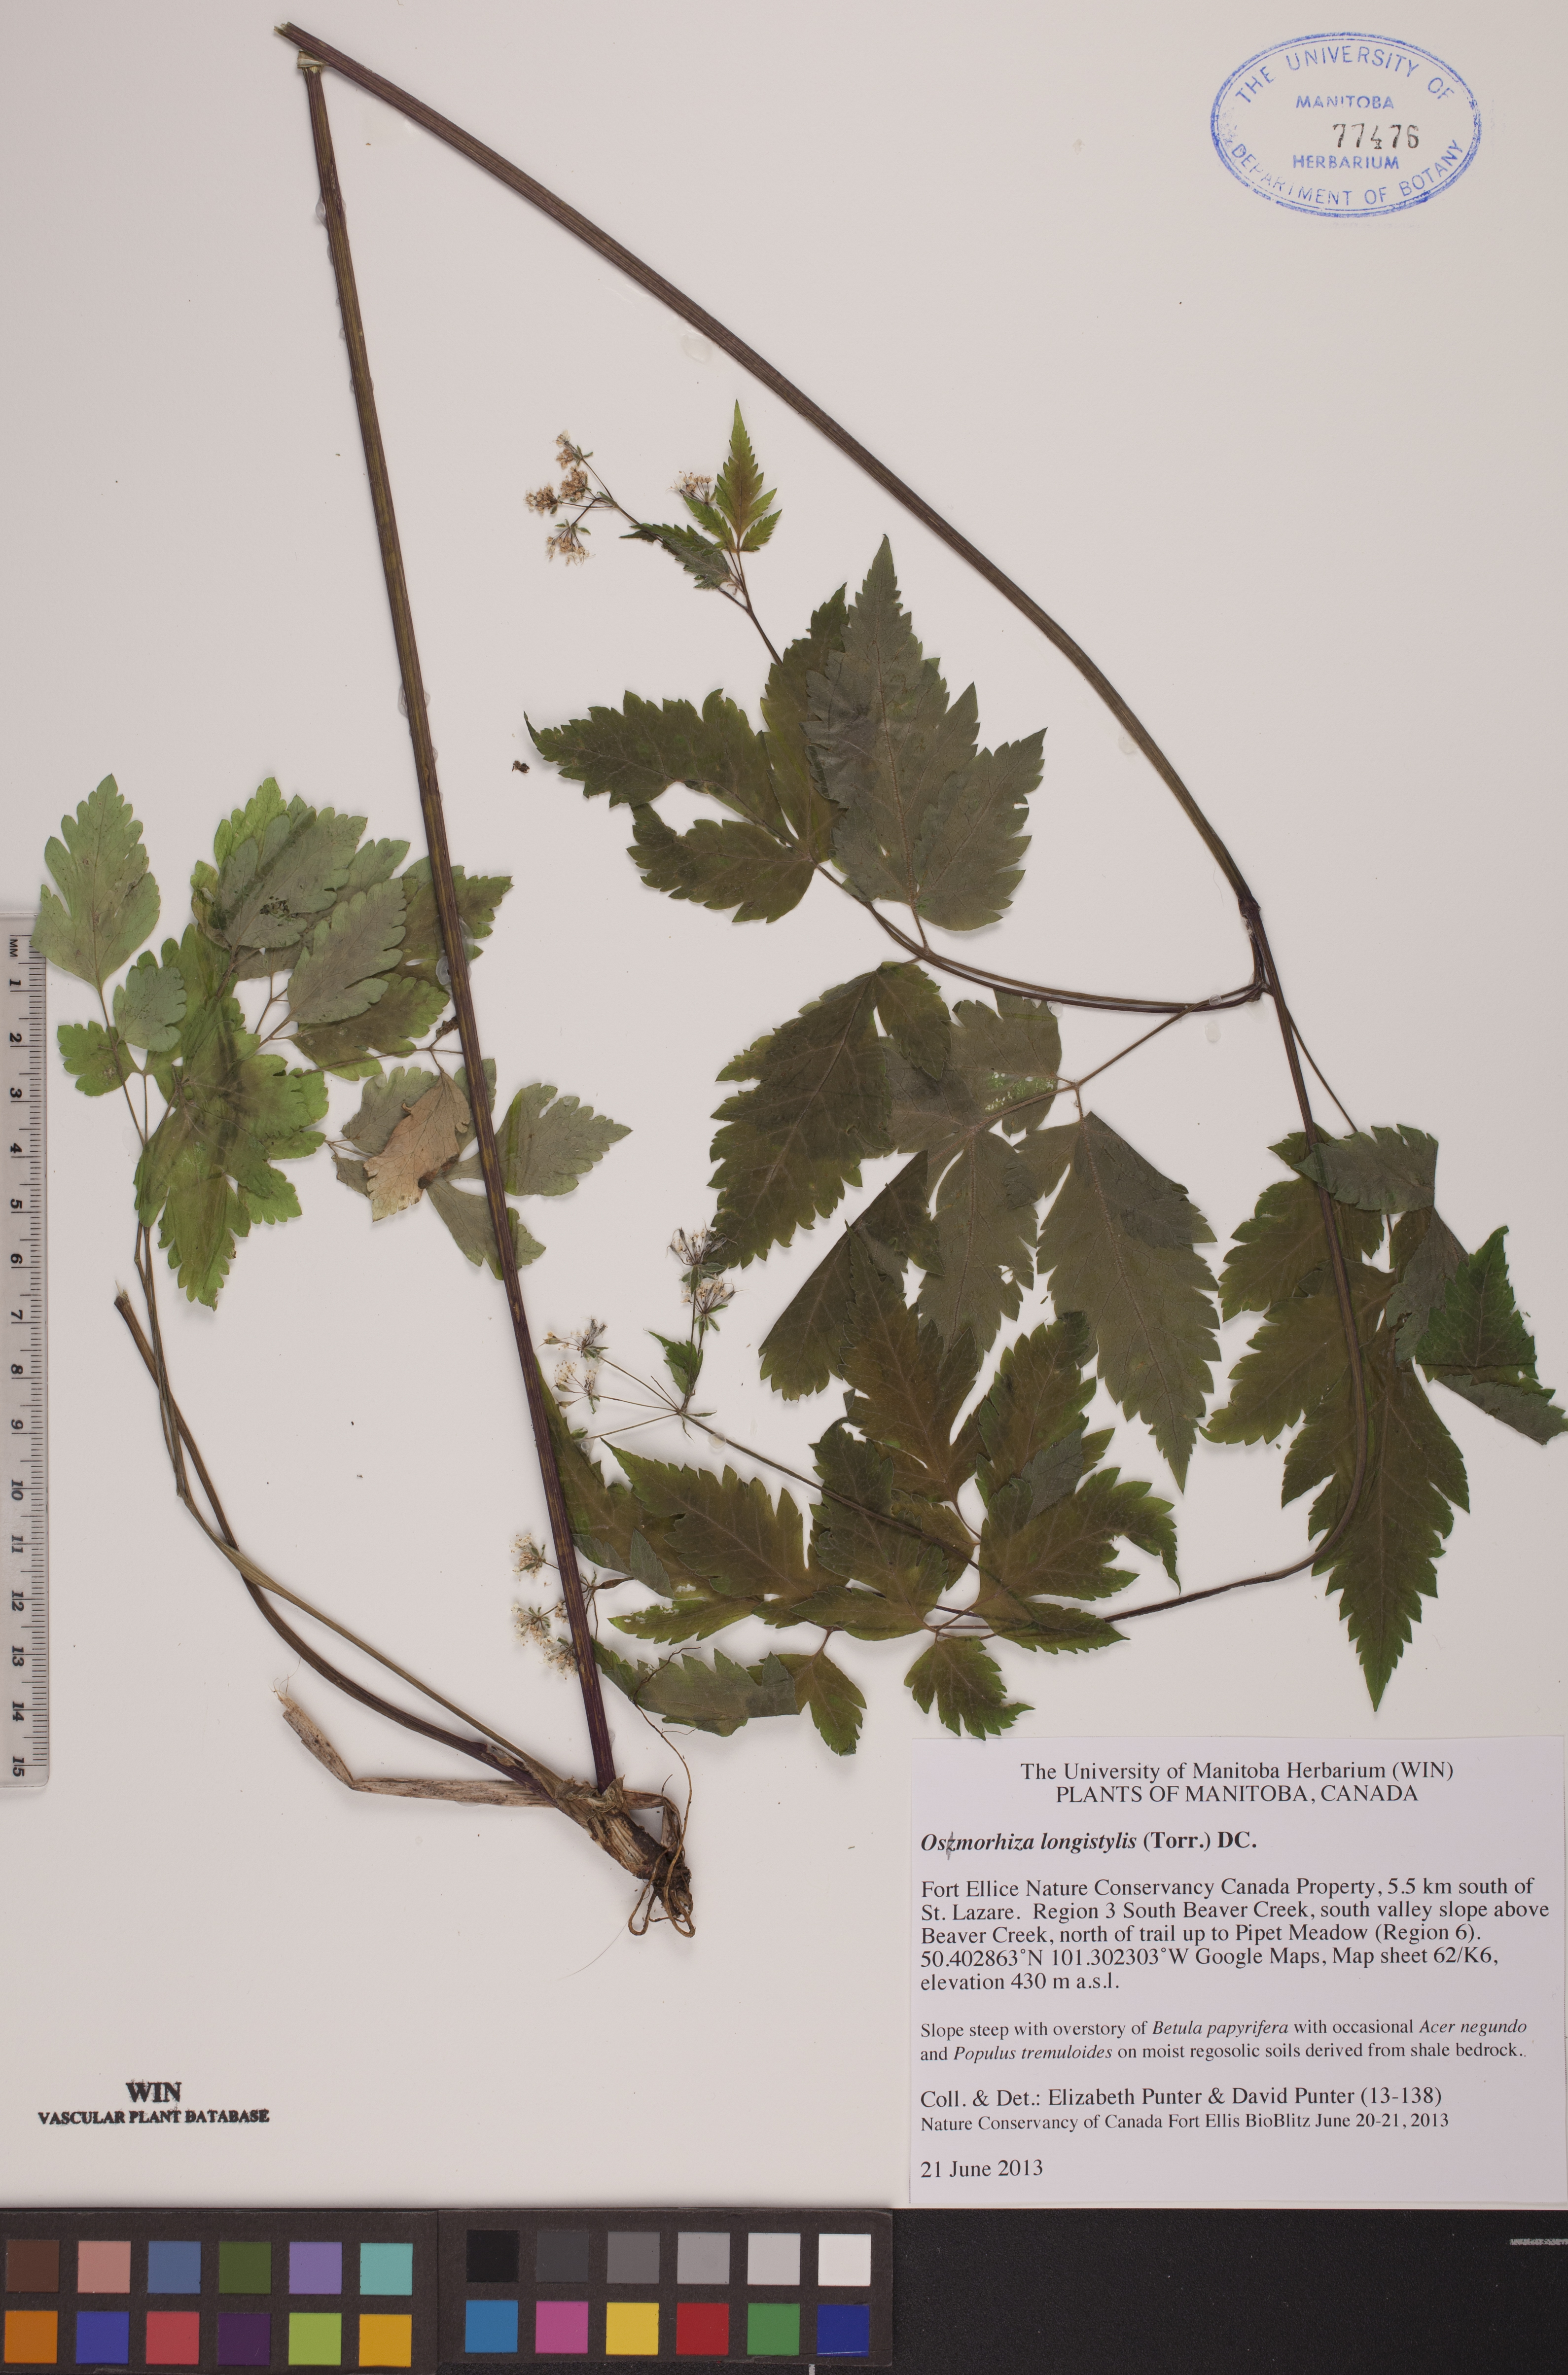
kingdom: Plantae
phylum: Tracheophyta
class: Magnoliopsida
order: Apiales
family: Apiaceae
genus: Osmorhiza
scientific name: Osmorhiza longistylis
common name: Smooth sweet cicely
